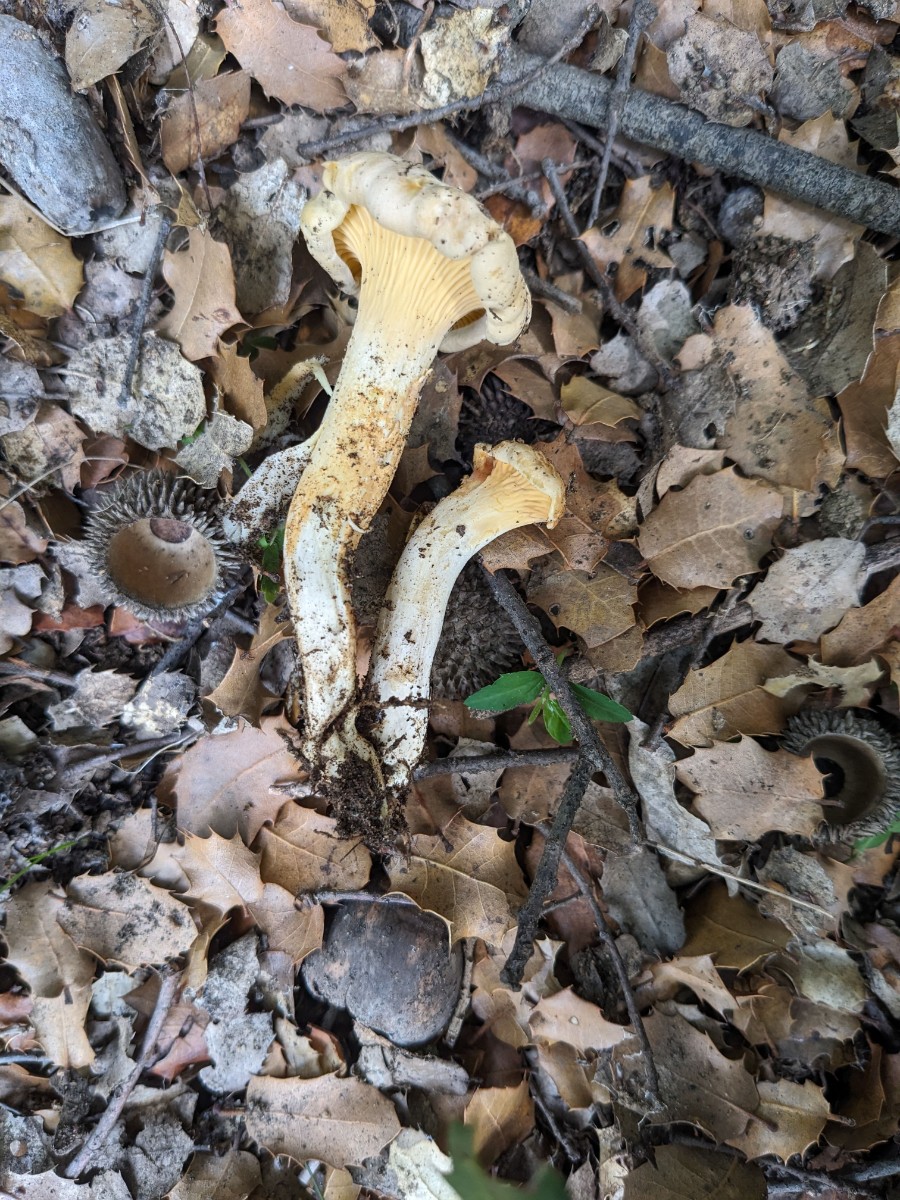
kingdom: Fungi
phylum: Basidiomycota
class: Agaricomycetes
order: Cantharellales
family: Hydnaceae
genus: Cantharellus
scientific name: Cantharellus
